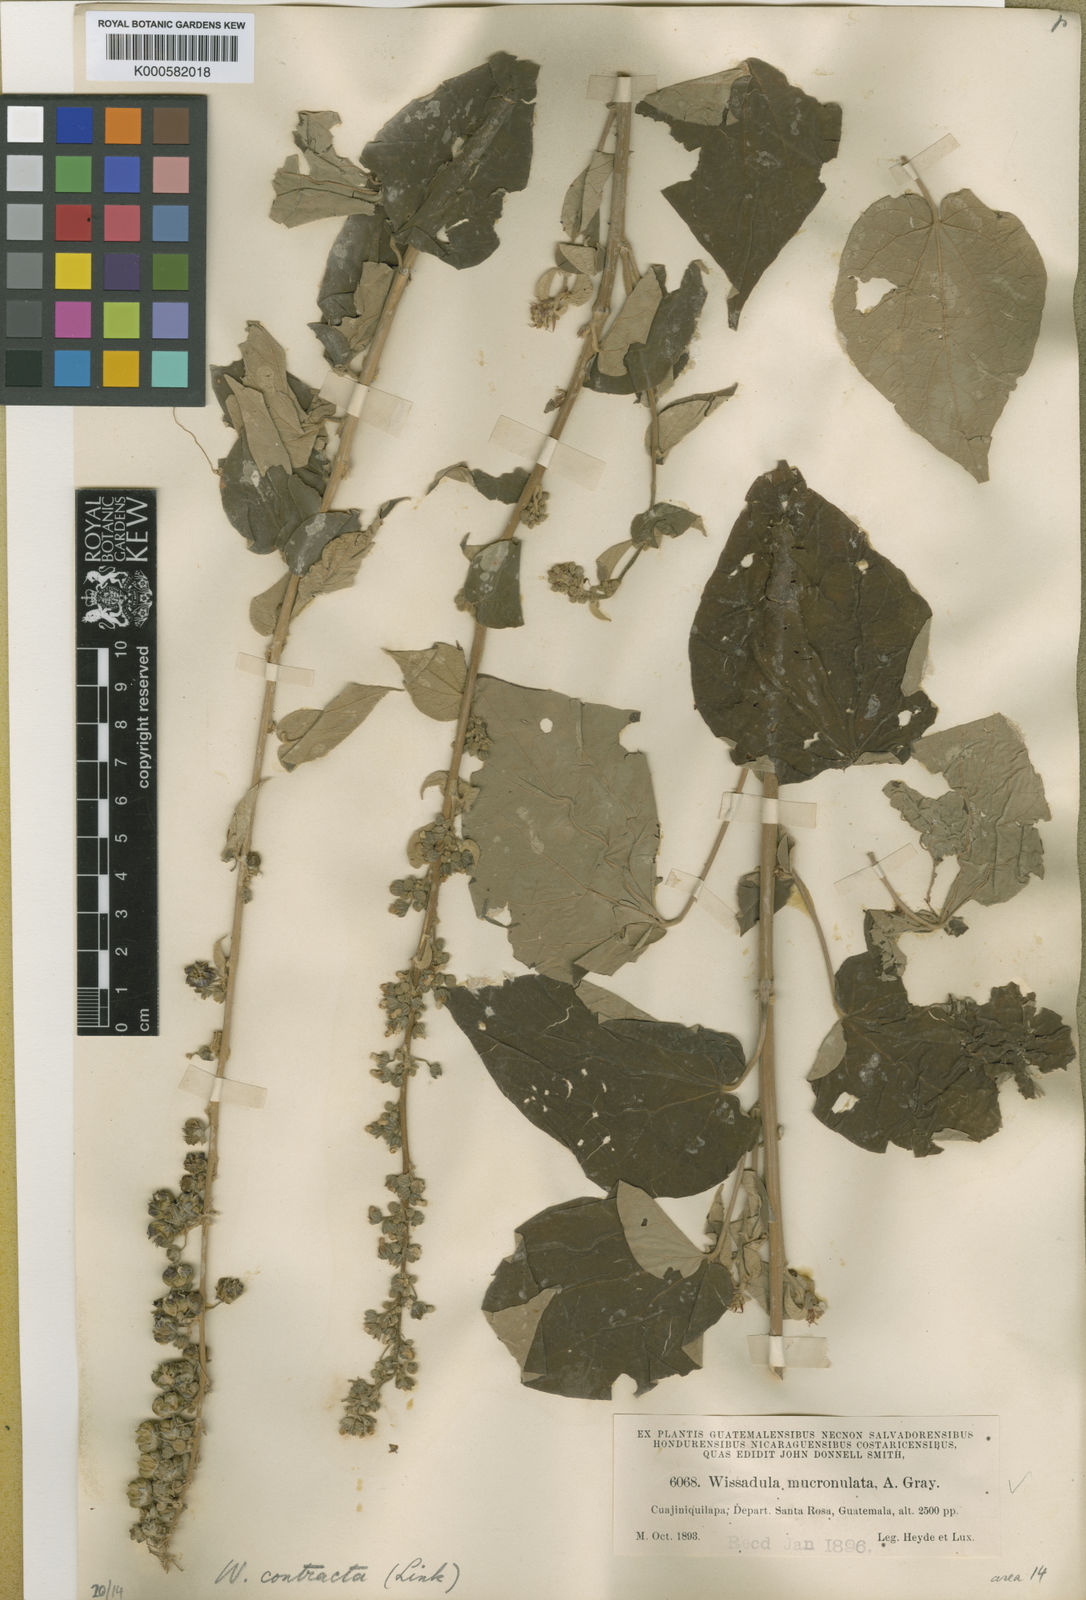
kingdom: Plantae
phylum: Tracheophyta
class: Magnoliopsida
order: Malvales
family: Malvaceae
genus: Wissadula
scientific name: Wissadula contracta
